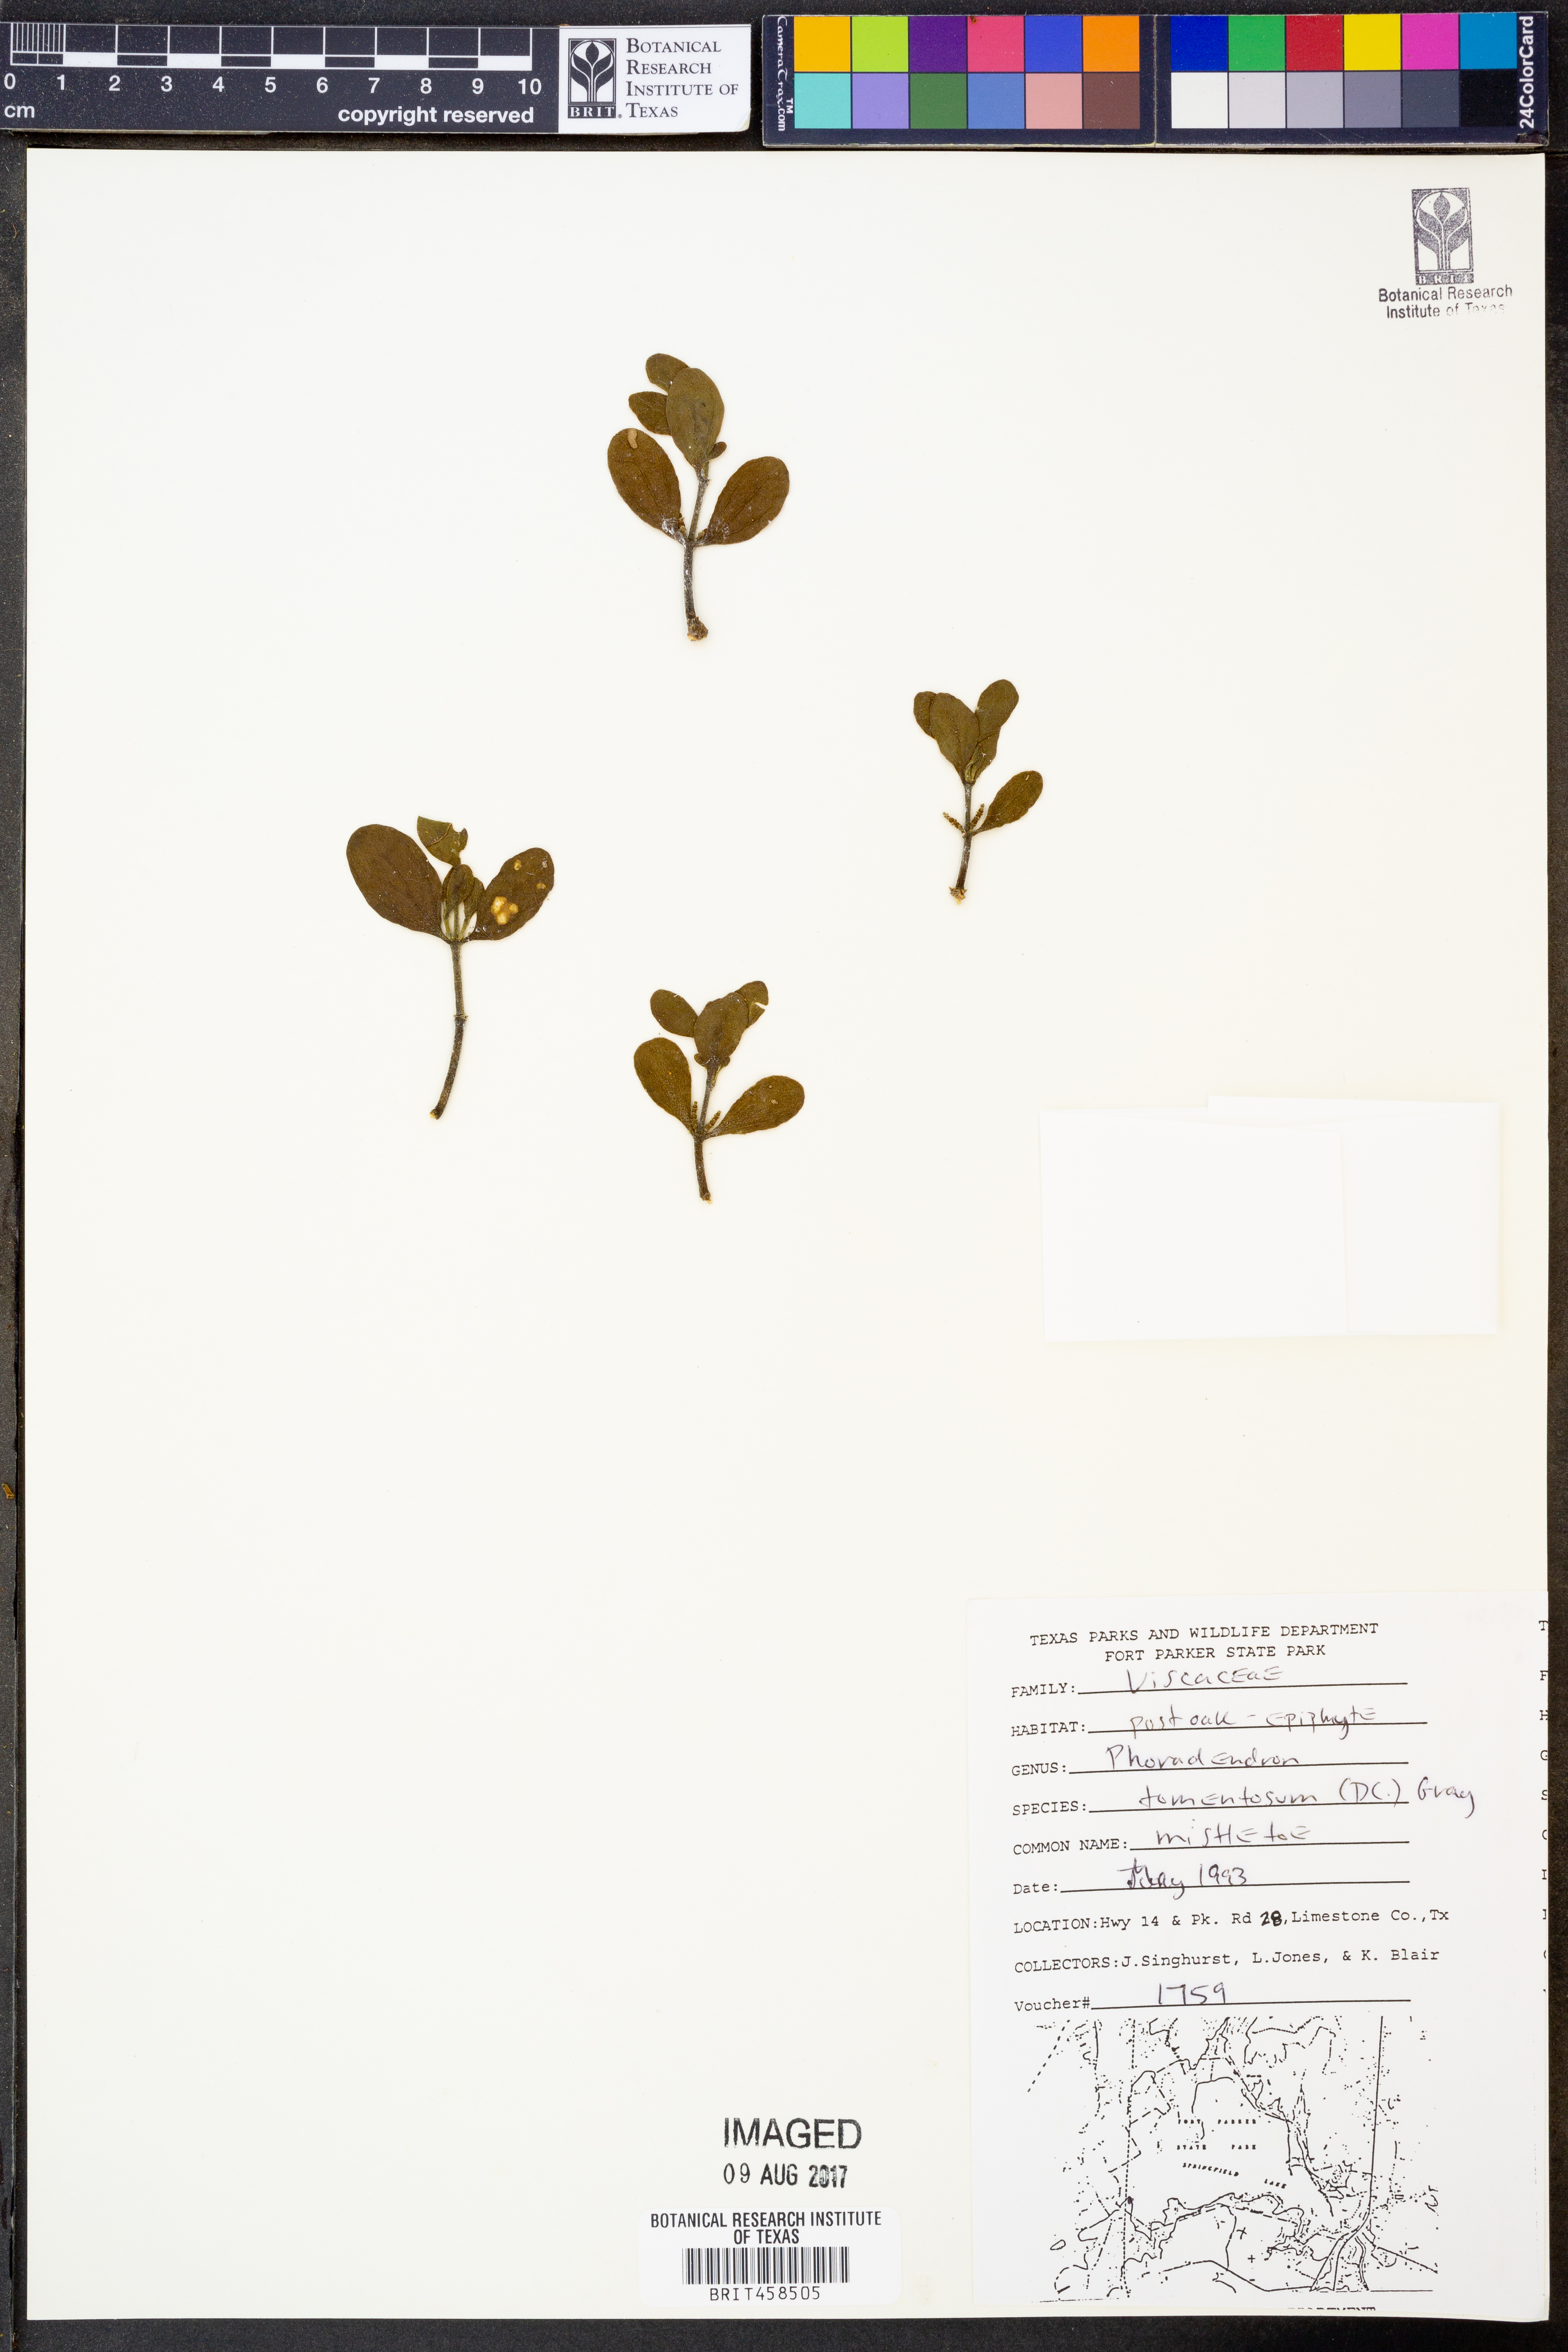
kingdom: Plantae
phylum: Tracheophyta
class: Magnoliopsida
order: Santalales
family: Viscaceae
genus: Phoradendron
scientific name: Phoradendron leucarpum
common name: Pacific mistletoe
